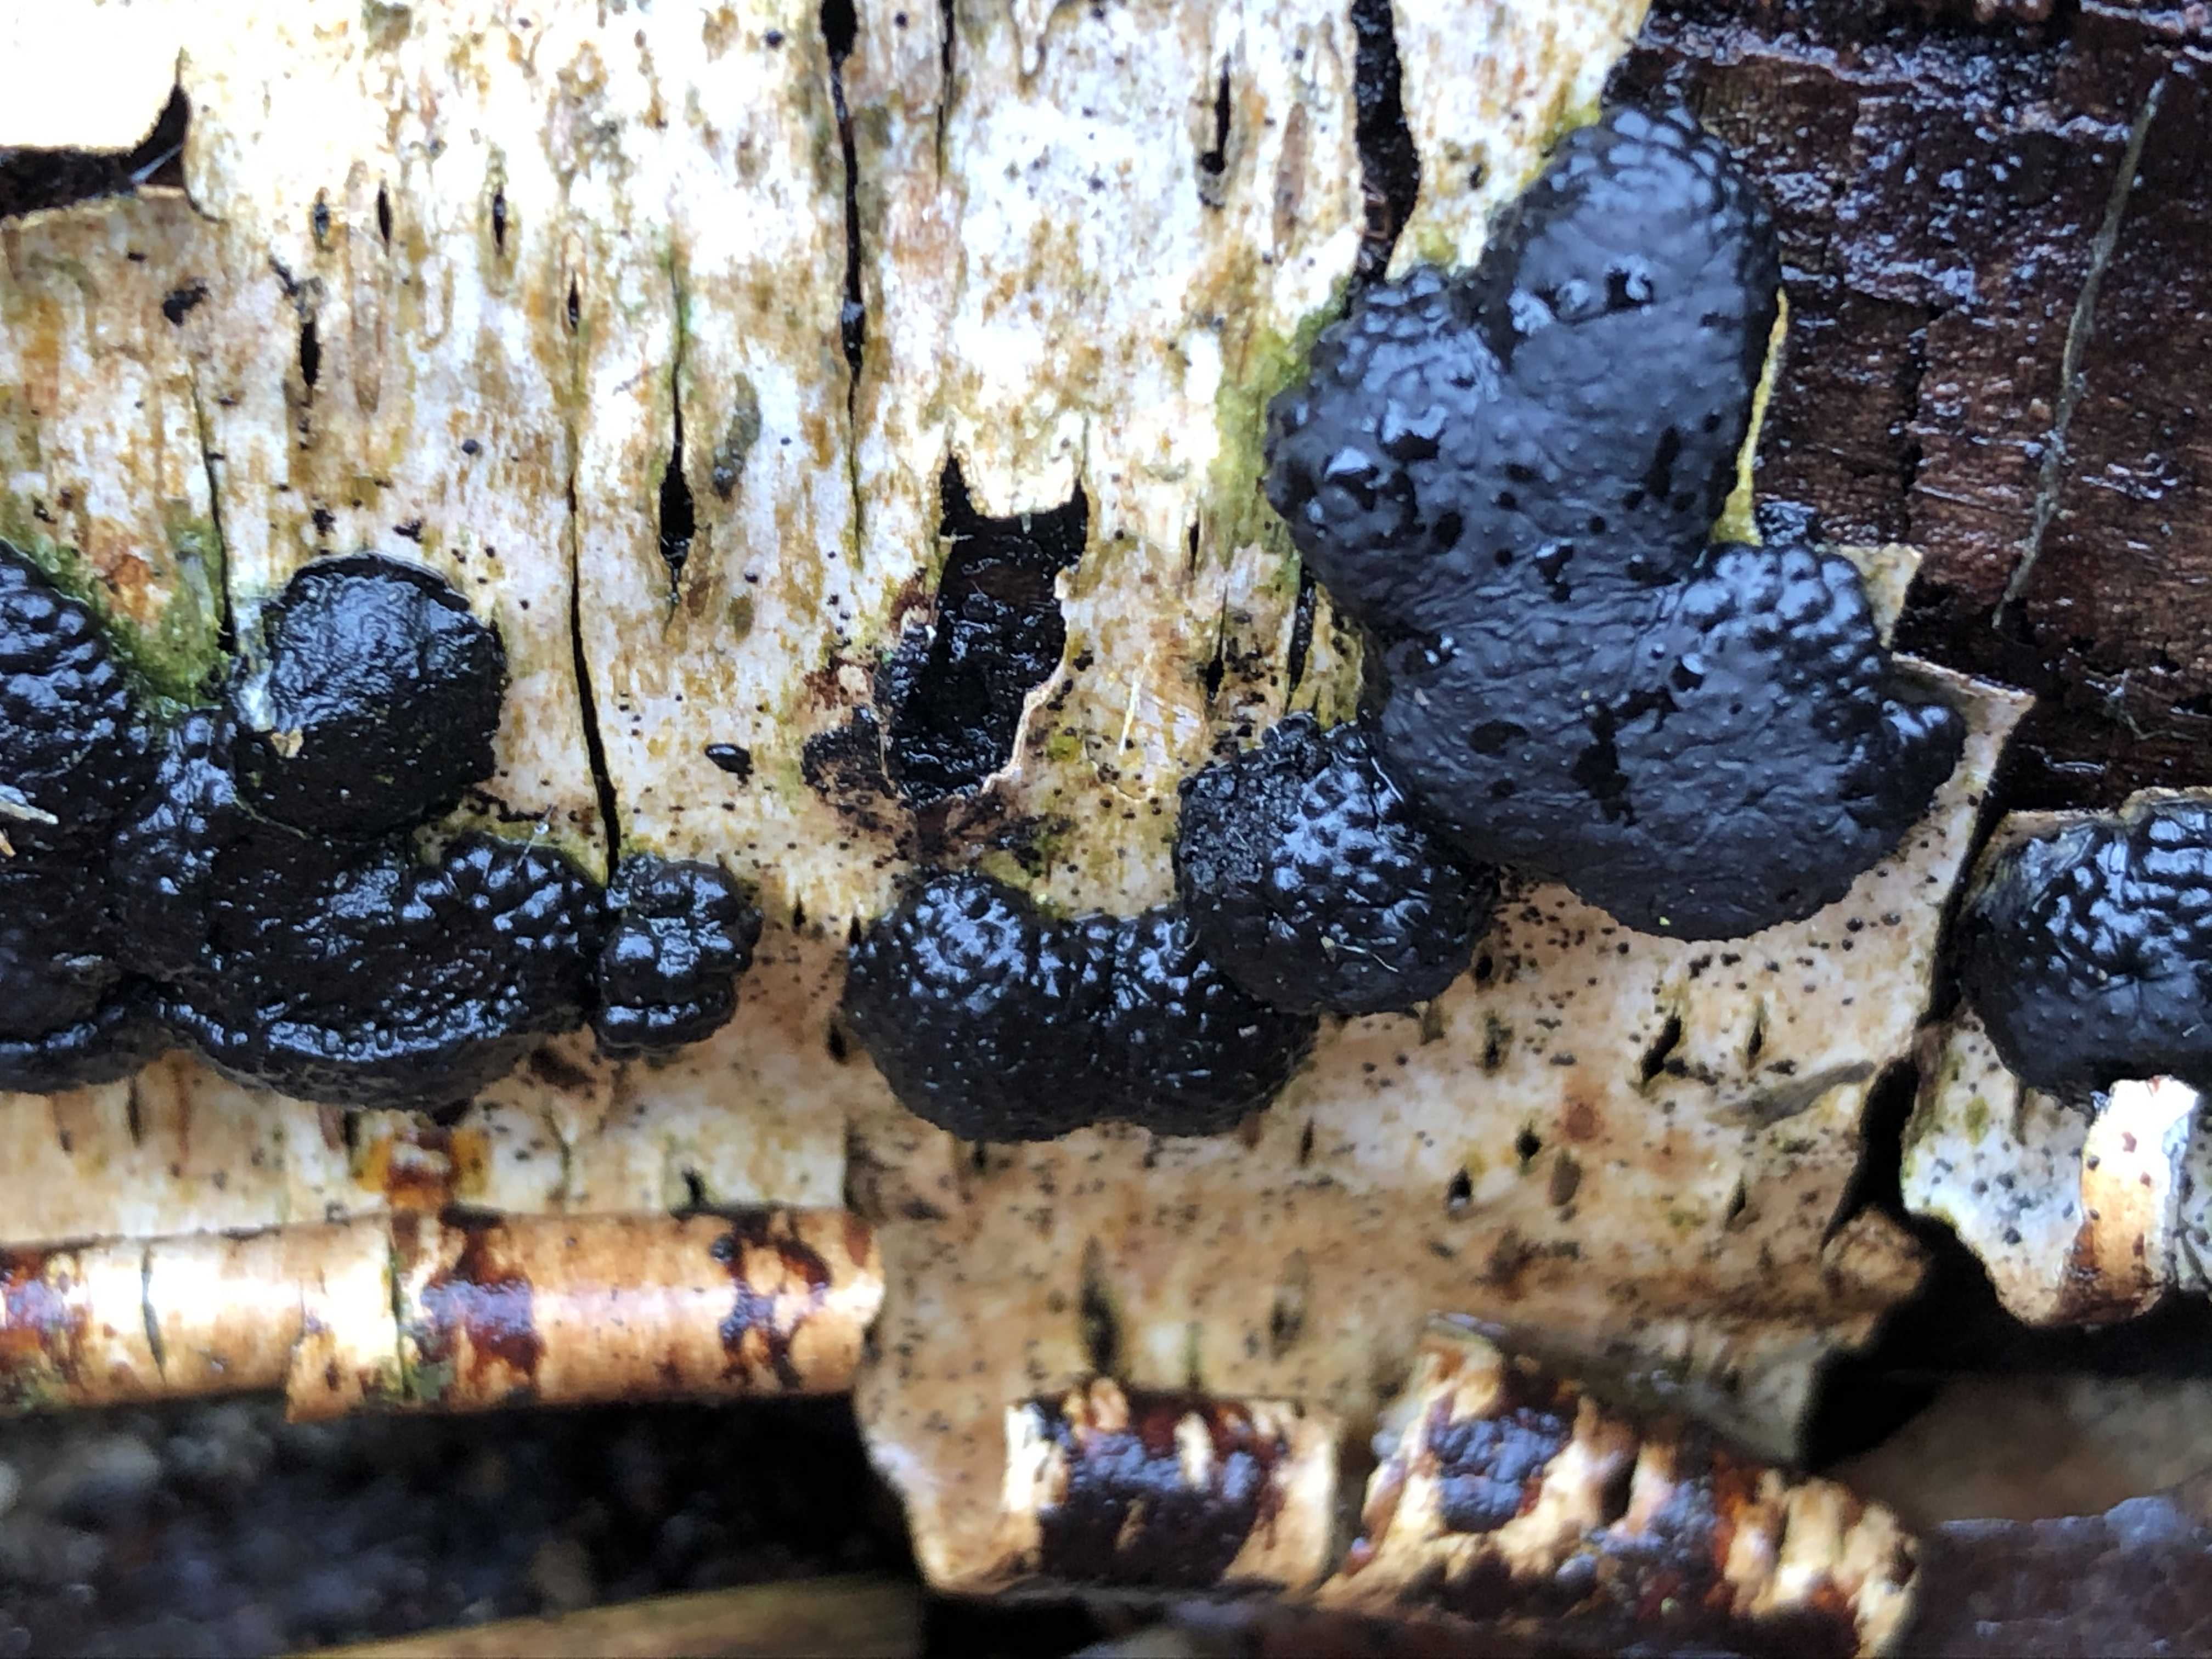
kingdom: Fungi
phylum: Ascomycota
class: Sordariomycetes
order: Xylariales
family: Hypoxylaceae
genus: Jackrogersella
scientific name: Jackrogersella multiformis
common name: foranderlig kulbær
